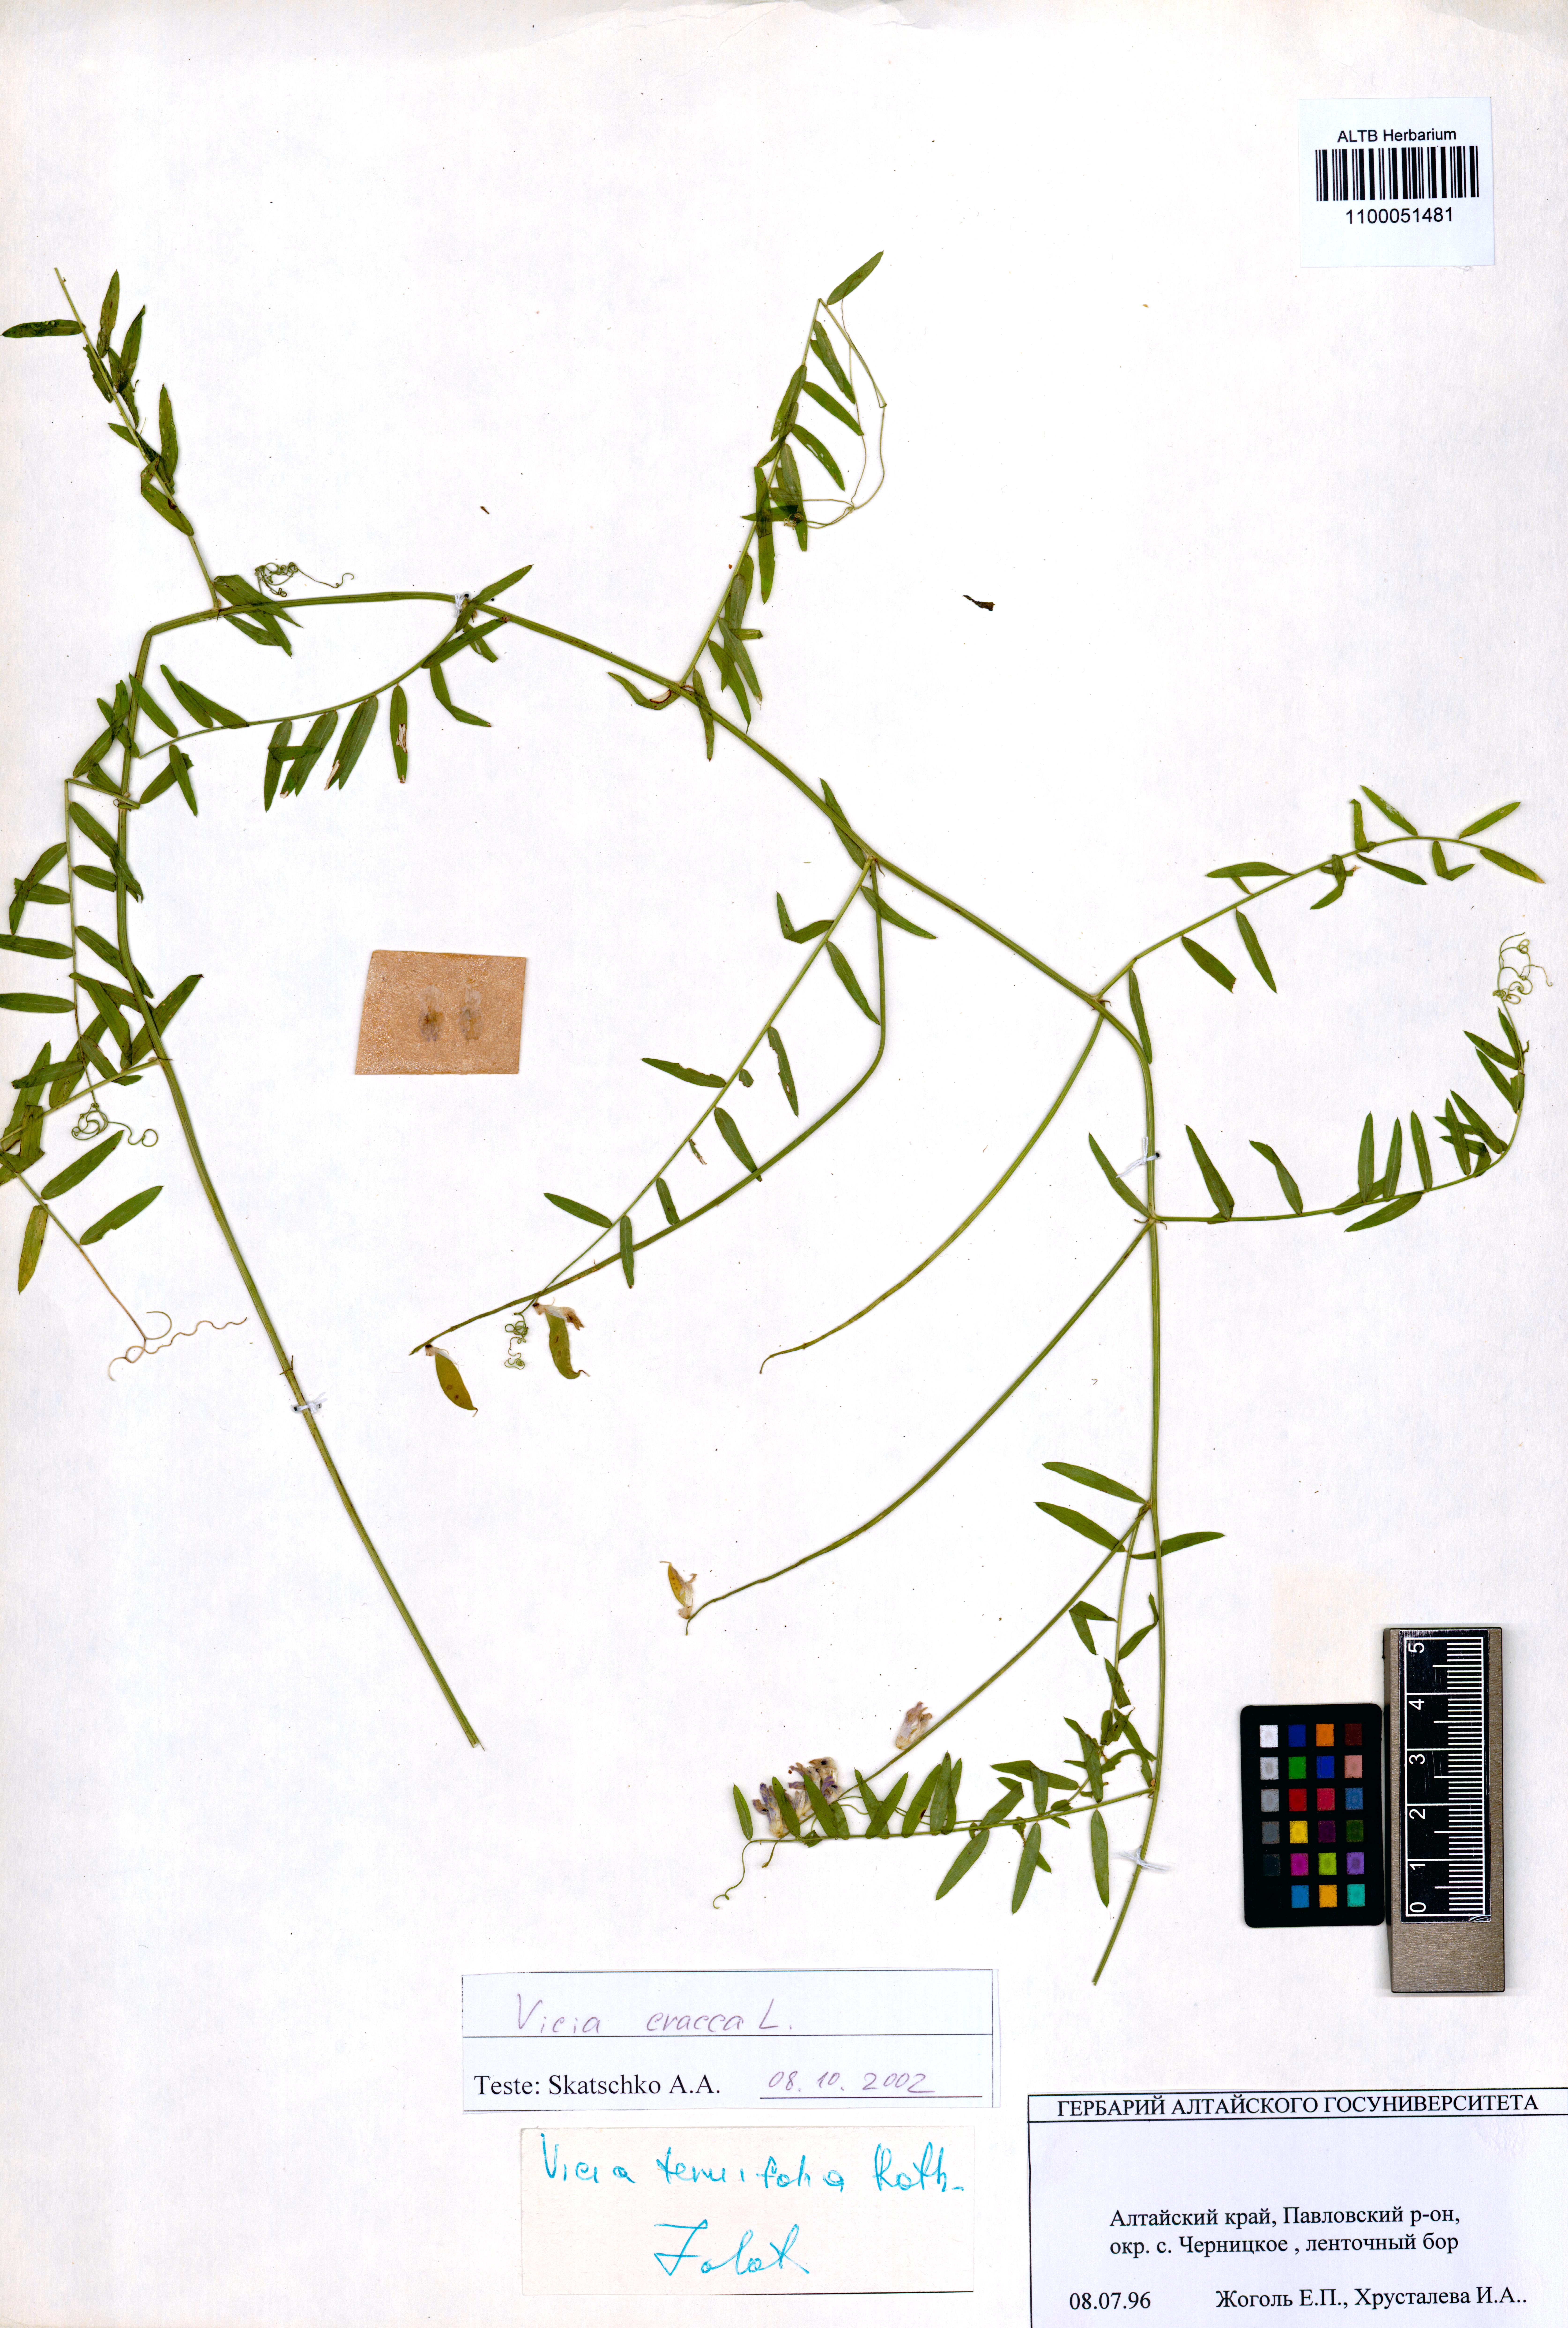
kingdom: Plantae
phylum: Tracheophyta
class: Magnoliopsida
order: Fabales
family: Fabaceae
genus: Vicia
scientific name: Vicia cracca
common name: Bird vetch
